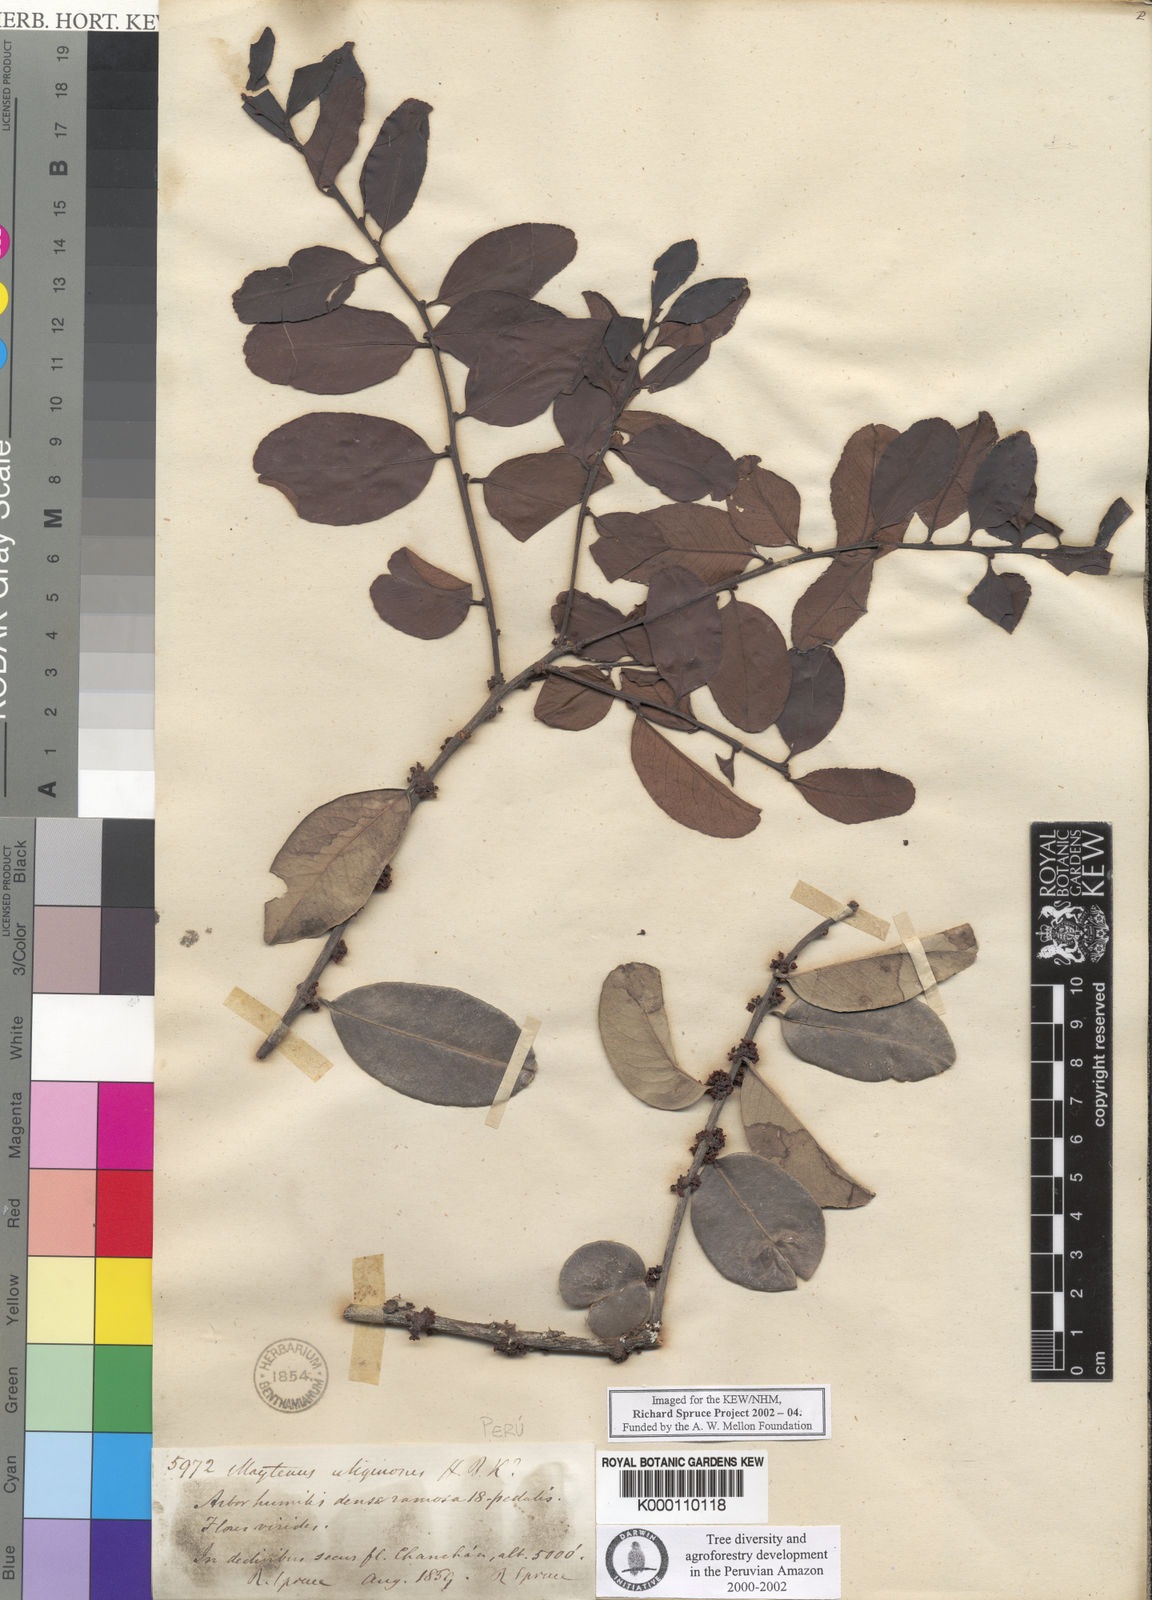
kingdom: Plantae
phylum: Tracheophyta
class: Magnoliopsida
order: Celastrales
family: Celastraceae
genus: Tricerma
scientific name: Tricerma octogonum
